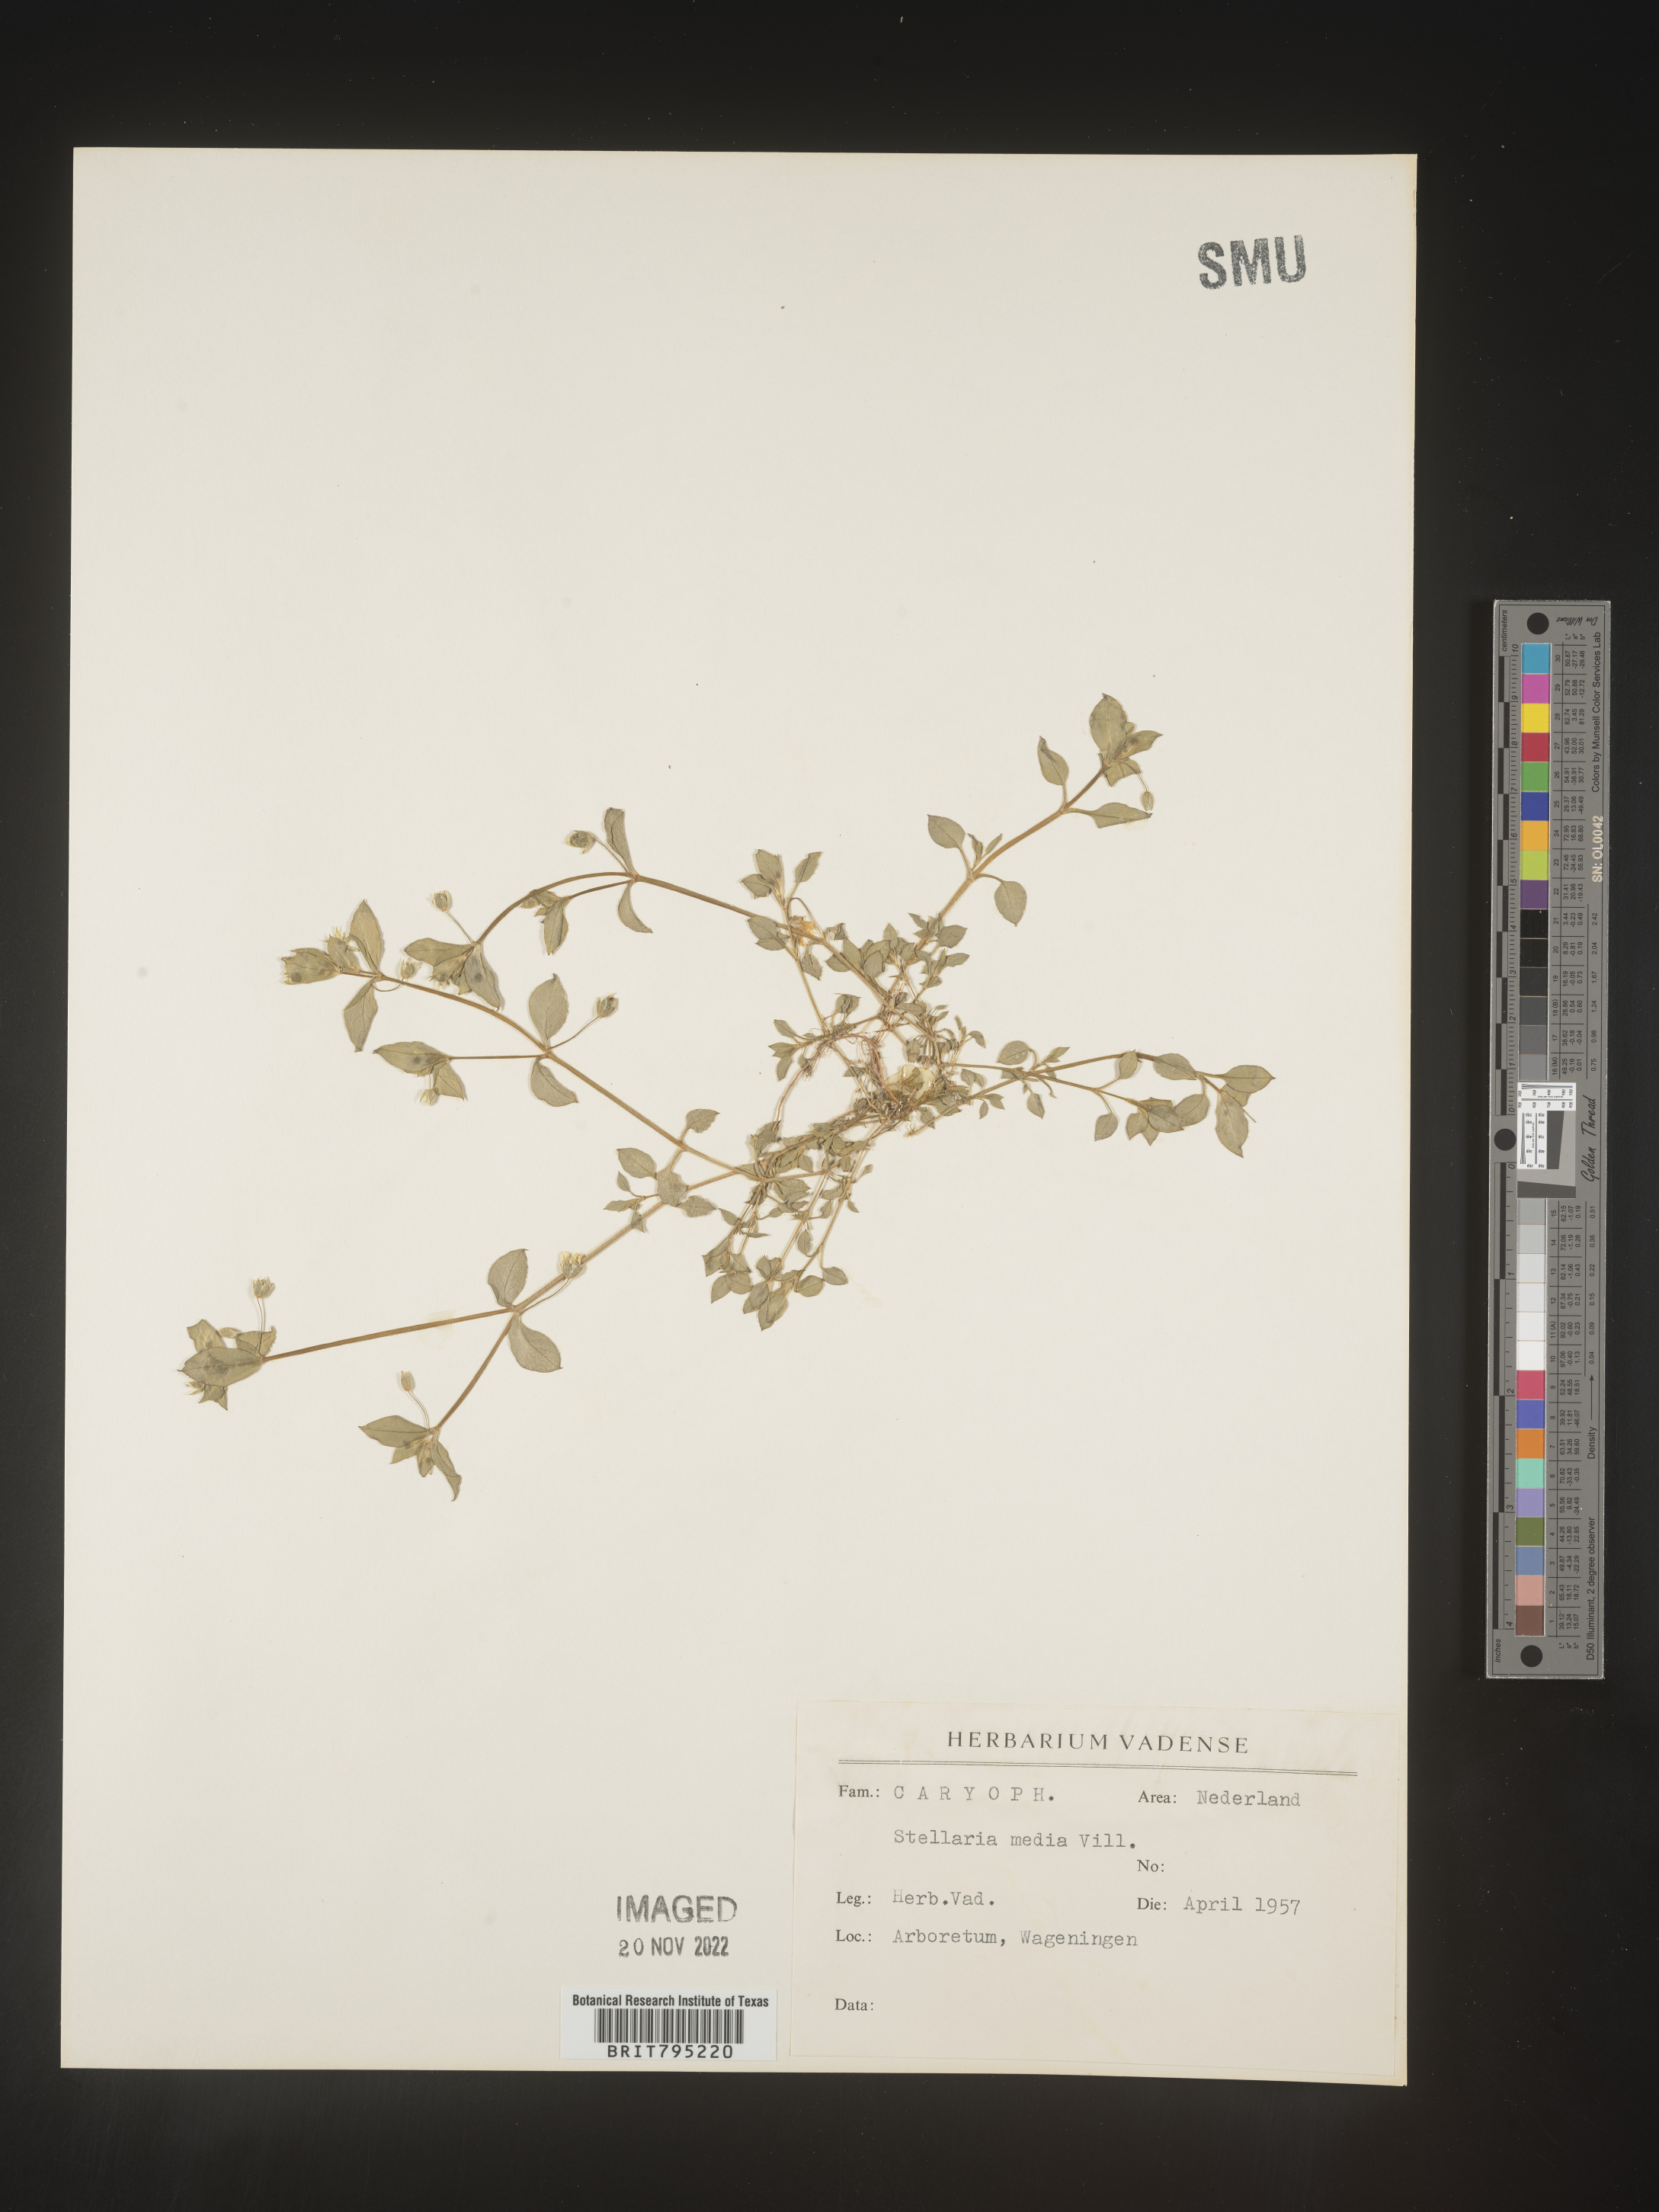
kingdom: Plantae
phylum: Tracheophyta
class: Magnoliopsida
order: Caryophyllales
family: Caryophyllaceae
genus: Stellaria
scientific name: Stellaria
